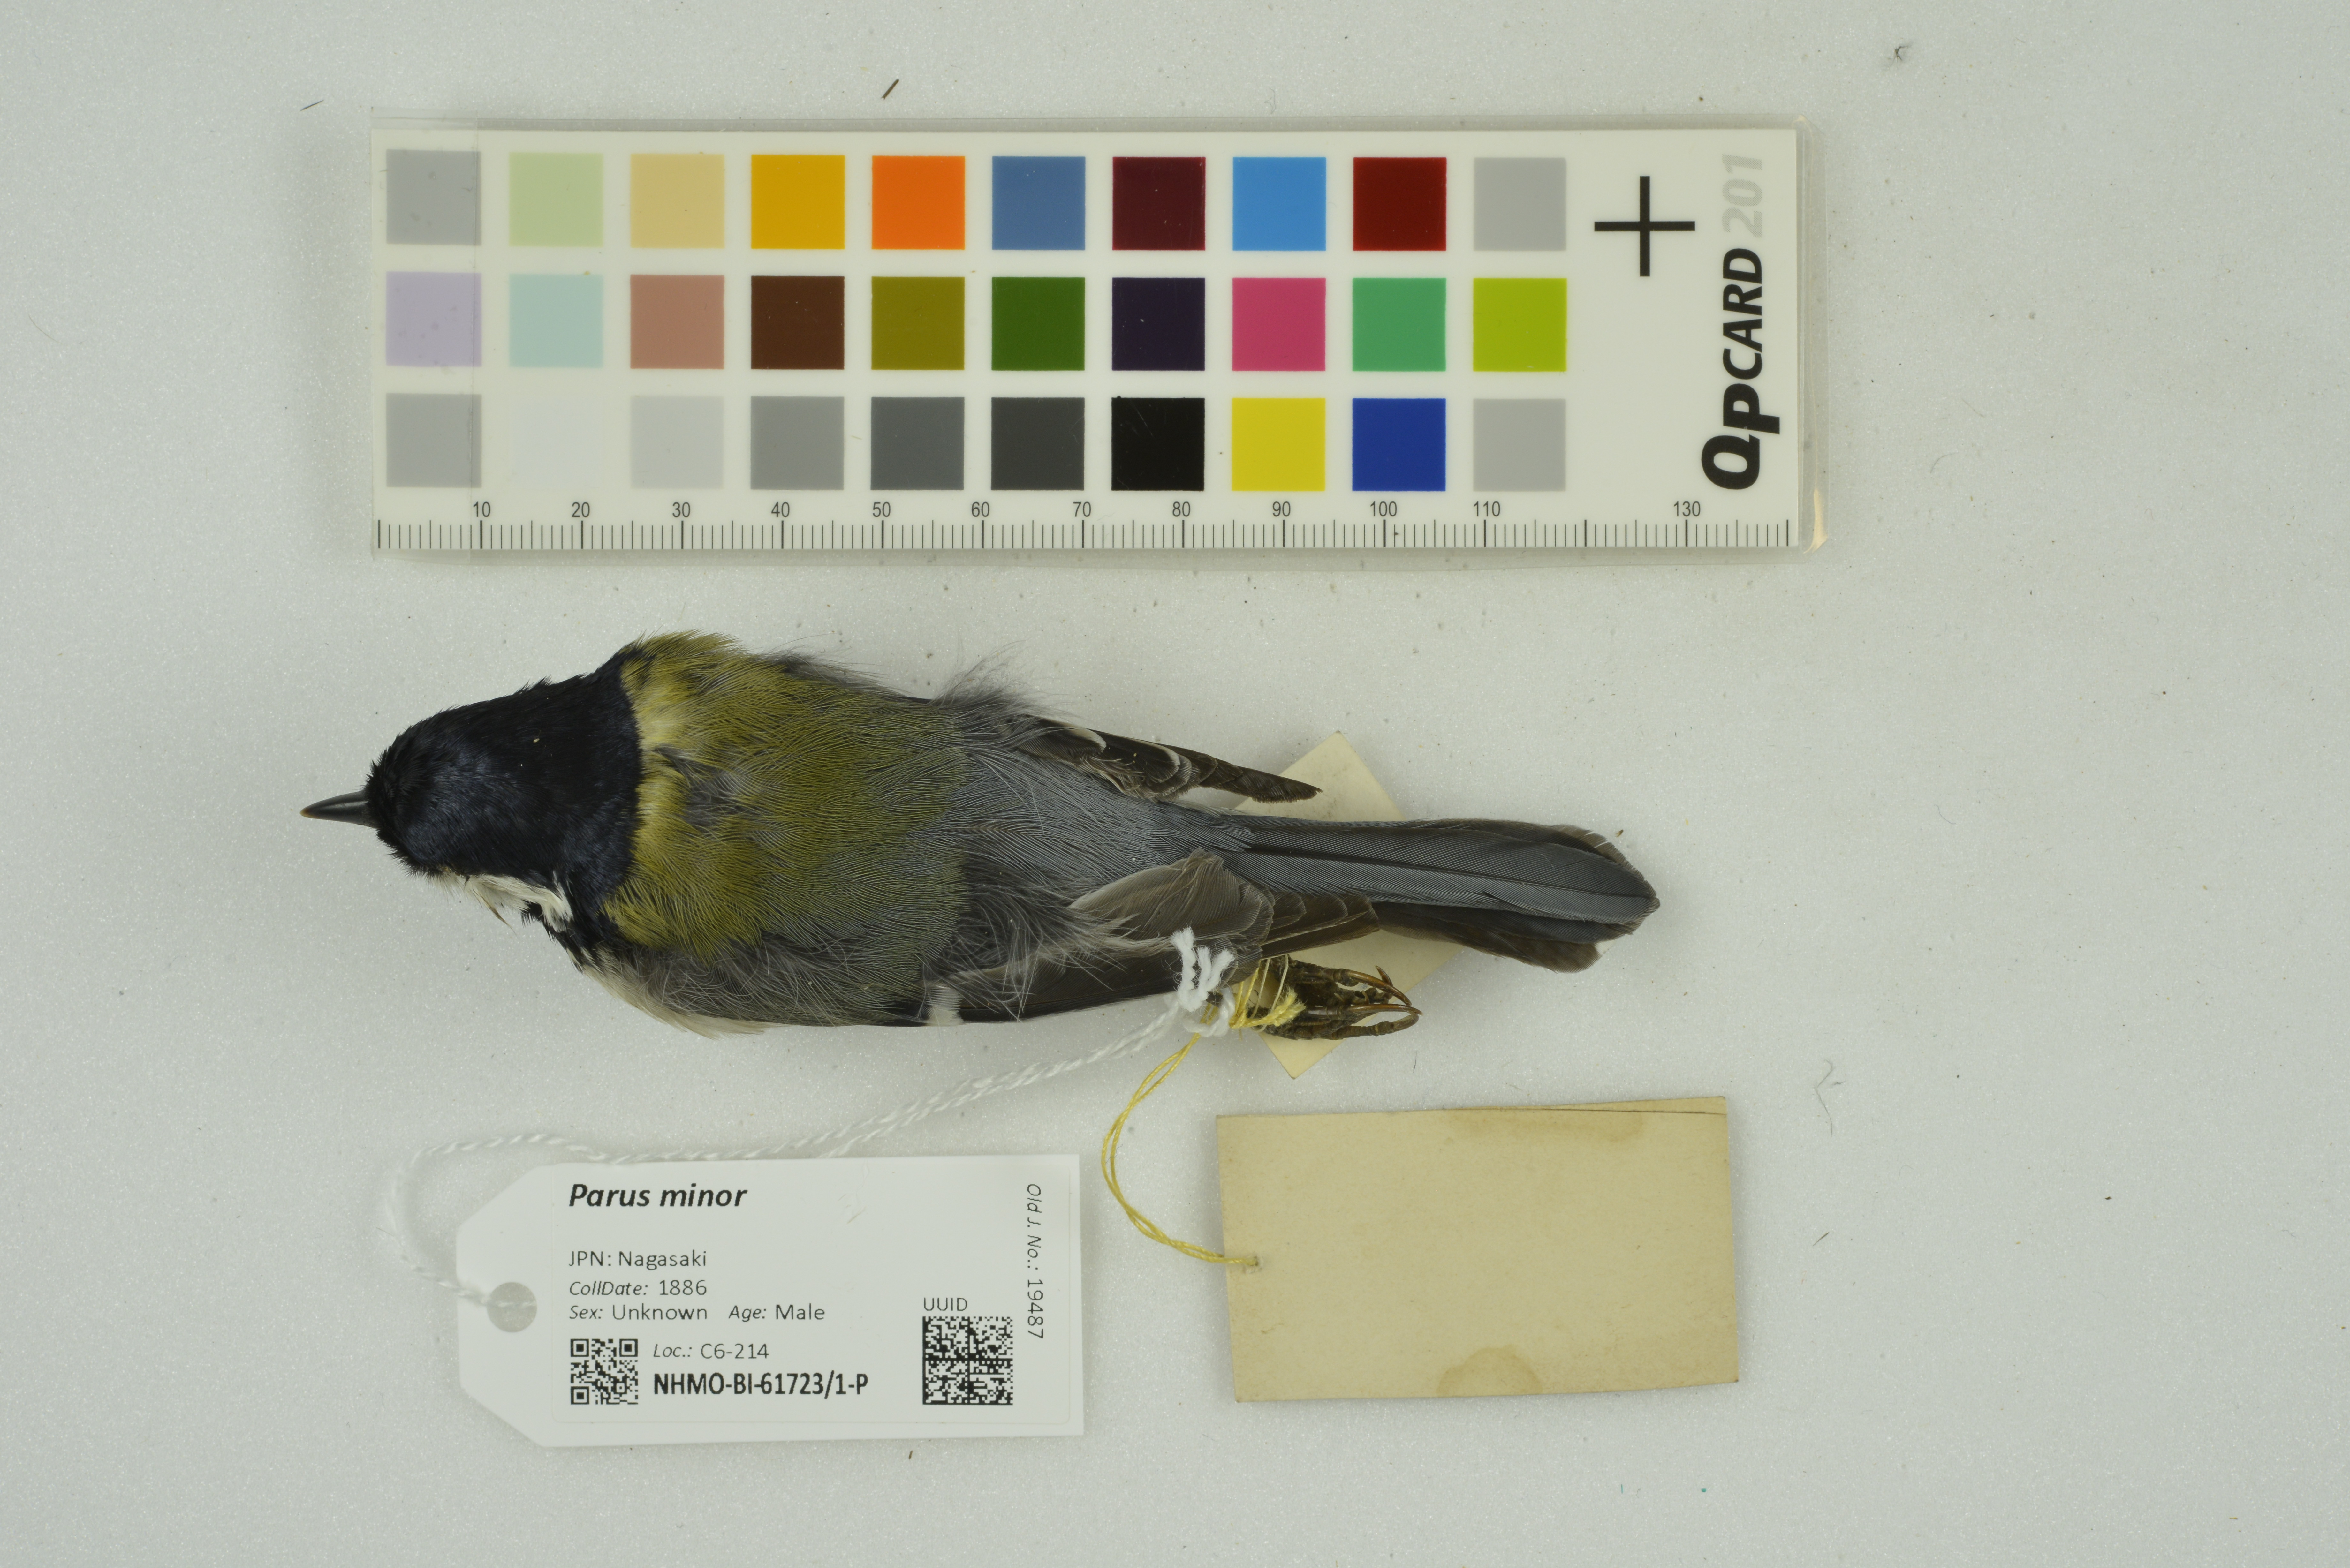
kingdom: Animalia
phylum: Chordata
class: Aves
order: Passeriformes
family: Paridae
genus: Parus
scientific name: Parus minor
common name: Japanese tit
